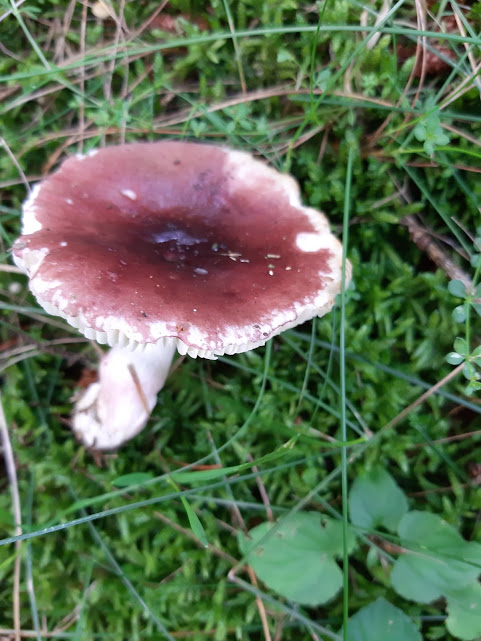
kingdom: Fungi
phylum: Basidiomycota
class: Agaricomycetes
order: Russulales
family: Russulaceae
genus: Russula
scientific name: Russula queletii
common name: Quélets skørhat
